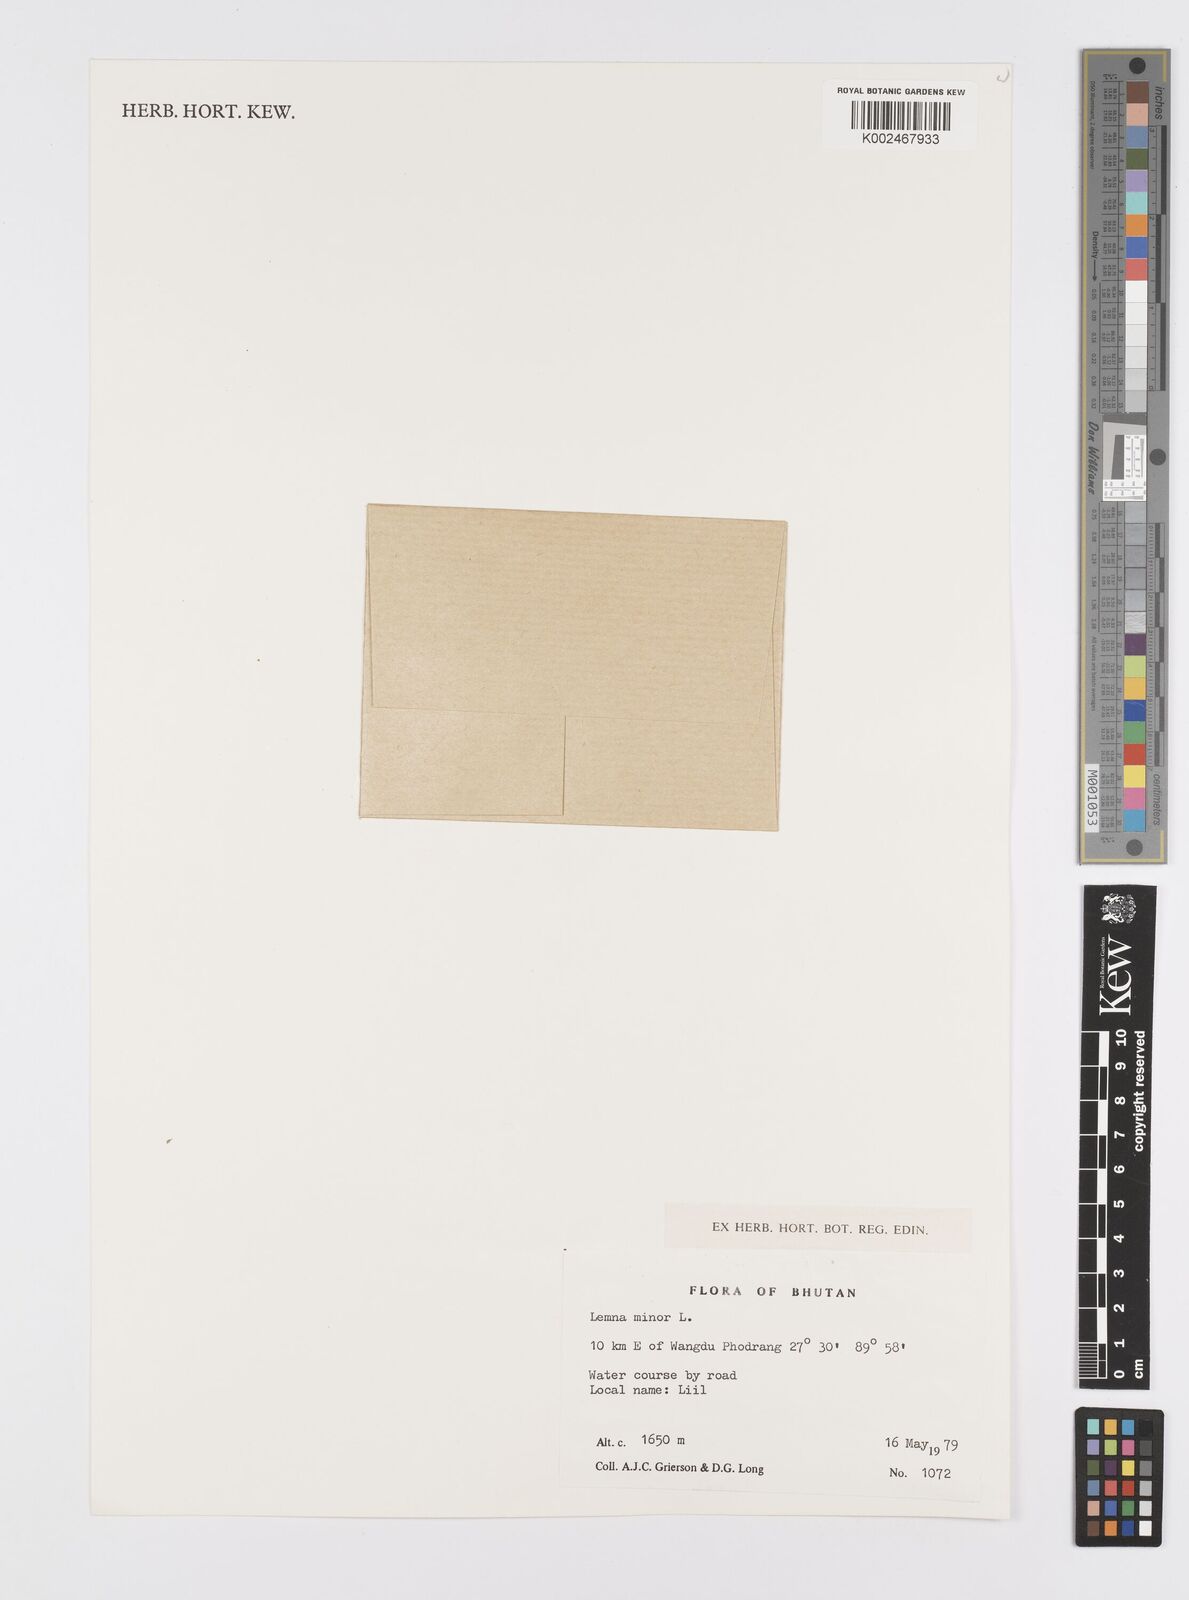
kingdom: Plantae
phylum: Tracheophyta
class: Liliopsida
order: Alismatales
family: Araceae
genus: Lemna
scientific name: Lemna minor
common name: Common duckweed
